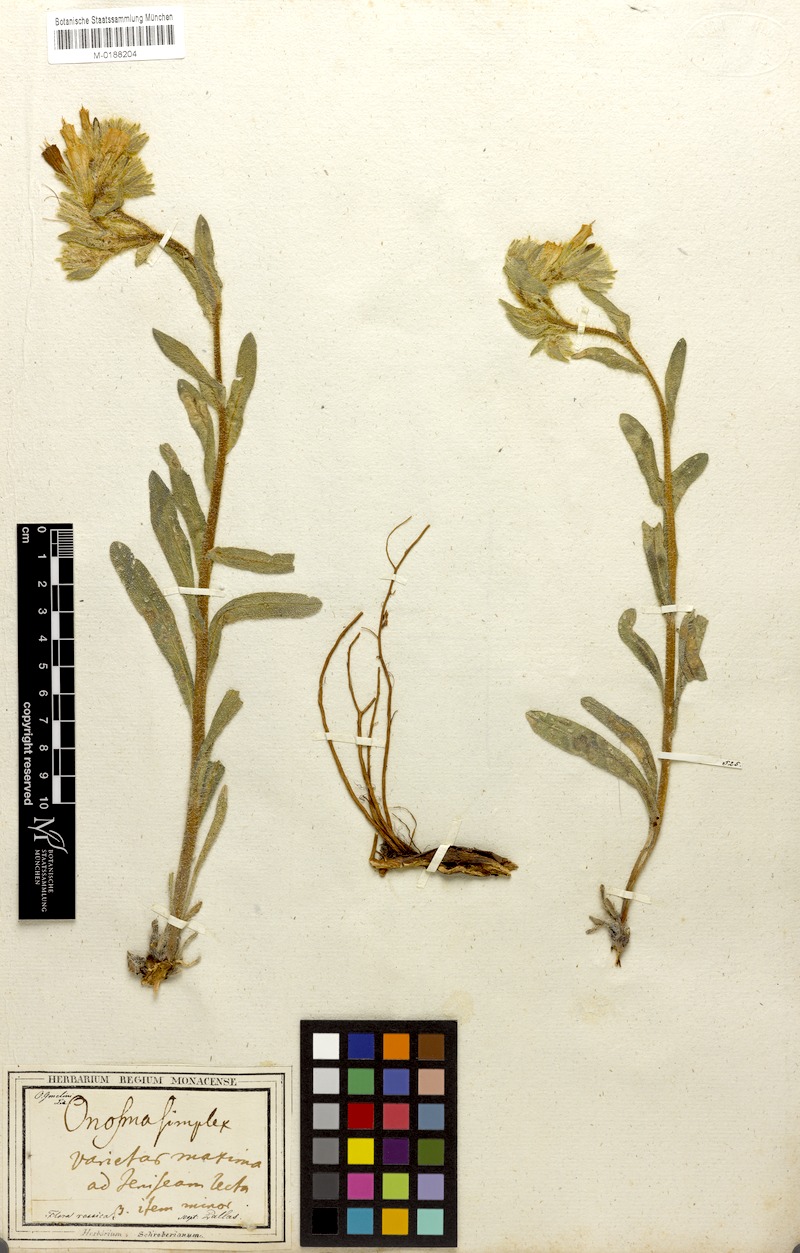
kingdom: Plantae
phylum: Tracheophyta
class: Magnoliopsida
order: Boraginales
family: Boraginaceae
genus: Onosma
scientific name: Onosma microcarpa
